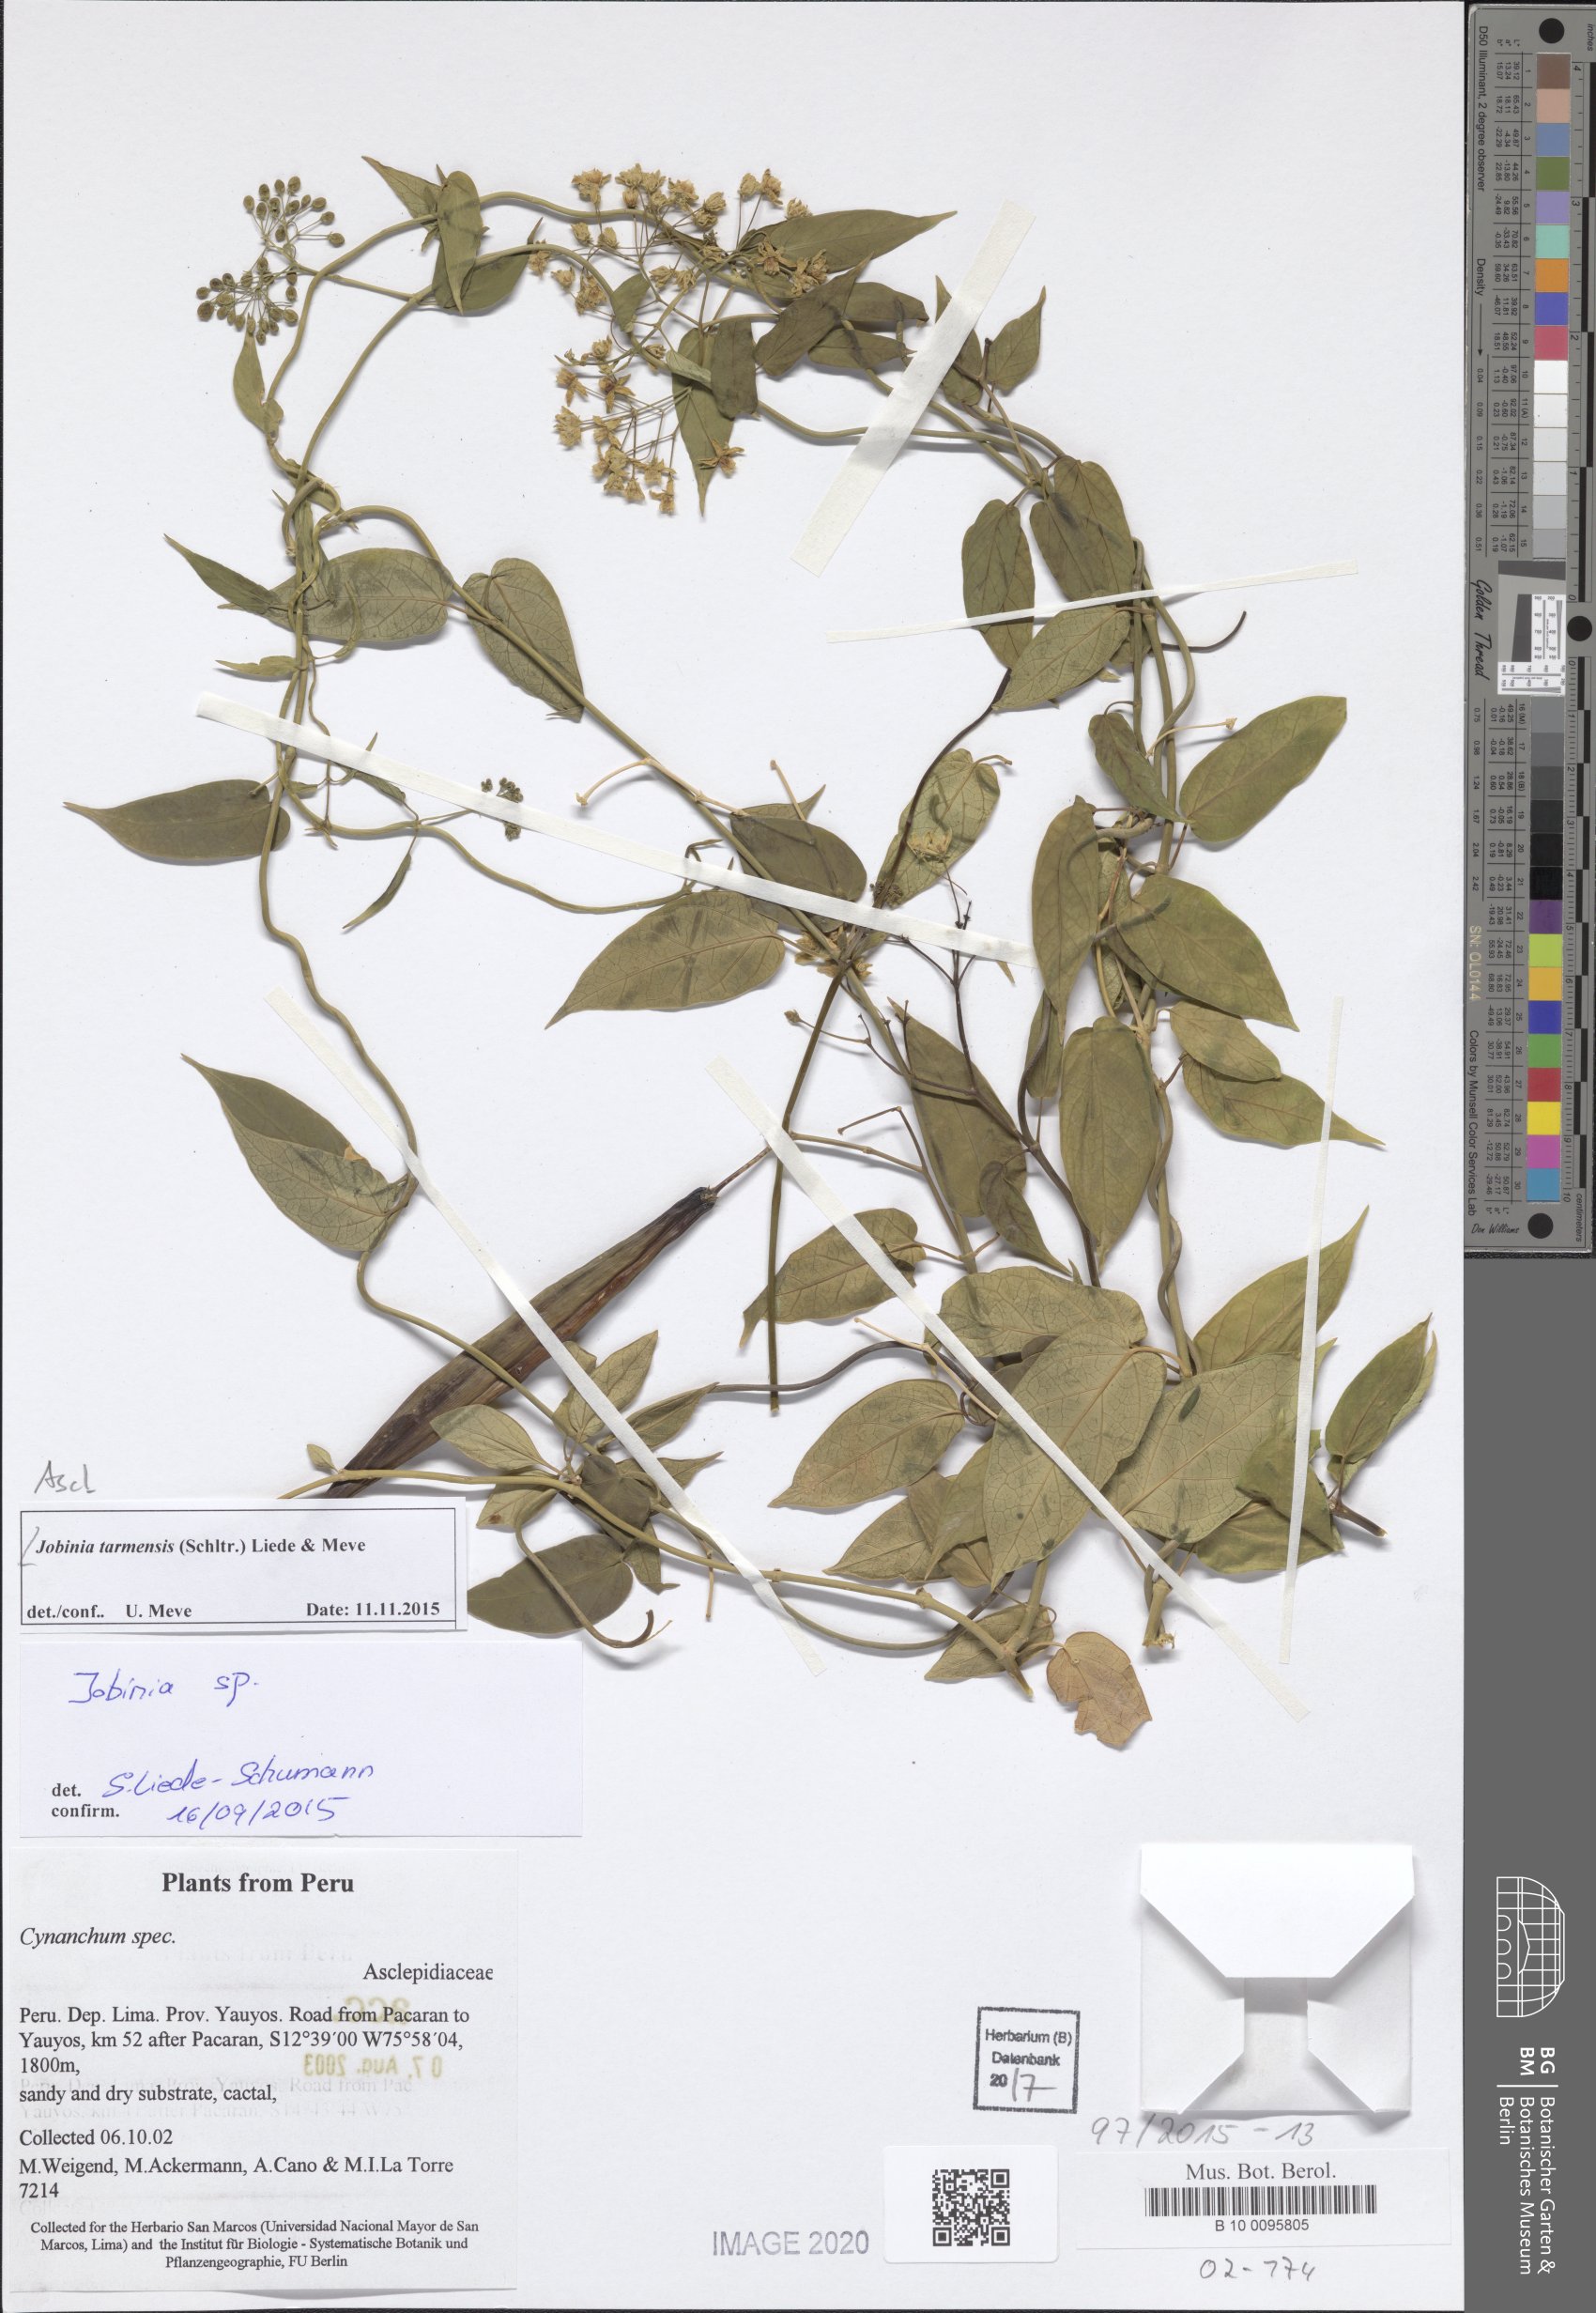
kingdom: Plantae
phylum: Tracheophyta
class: Magnoliopsida
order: Gentianales
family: Apocynaceae
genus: Jobinia
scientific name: Jobinia tarmensis
